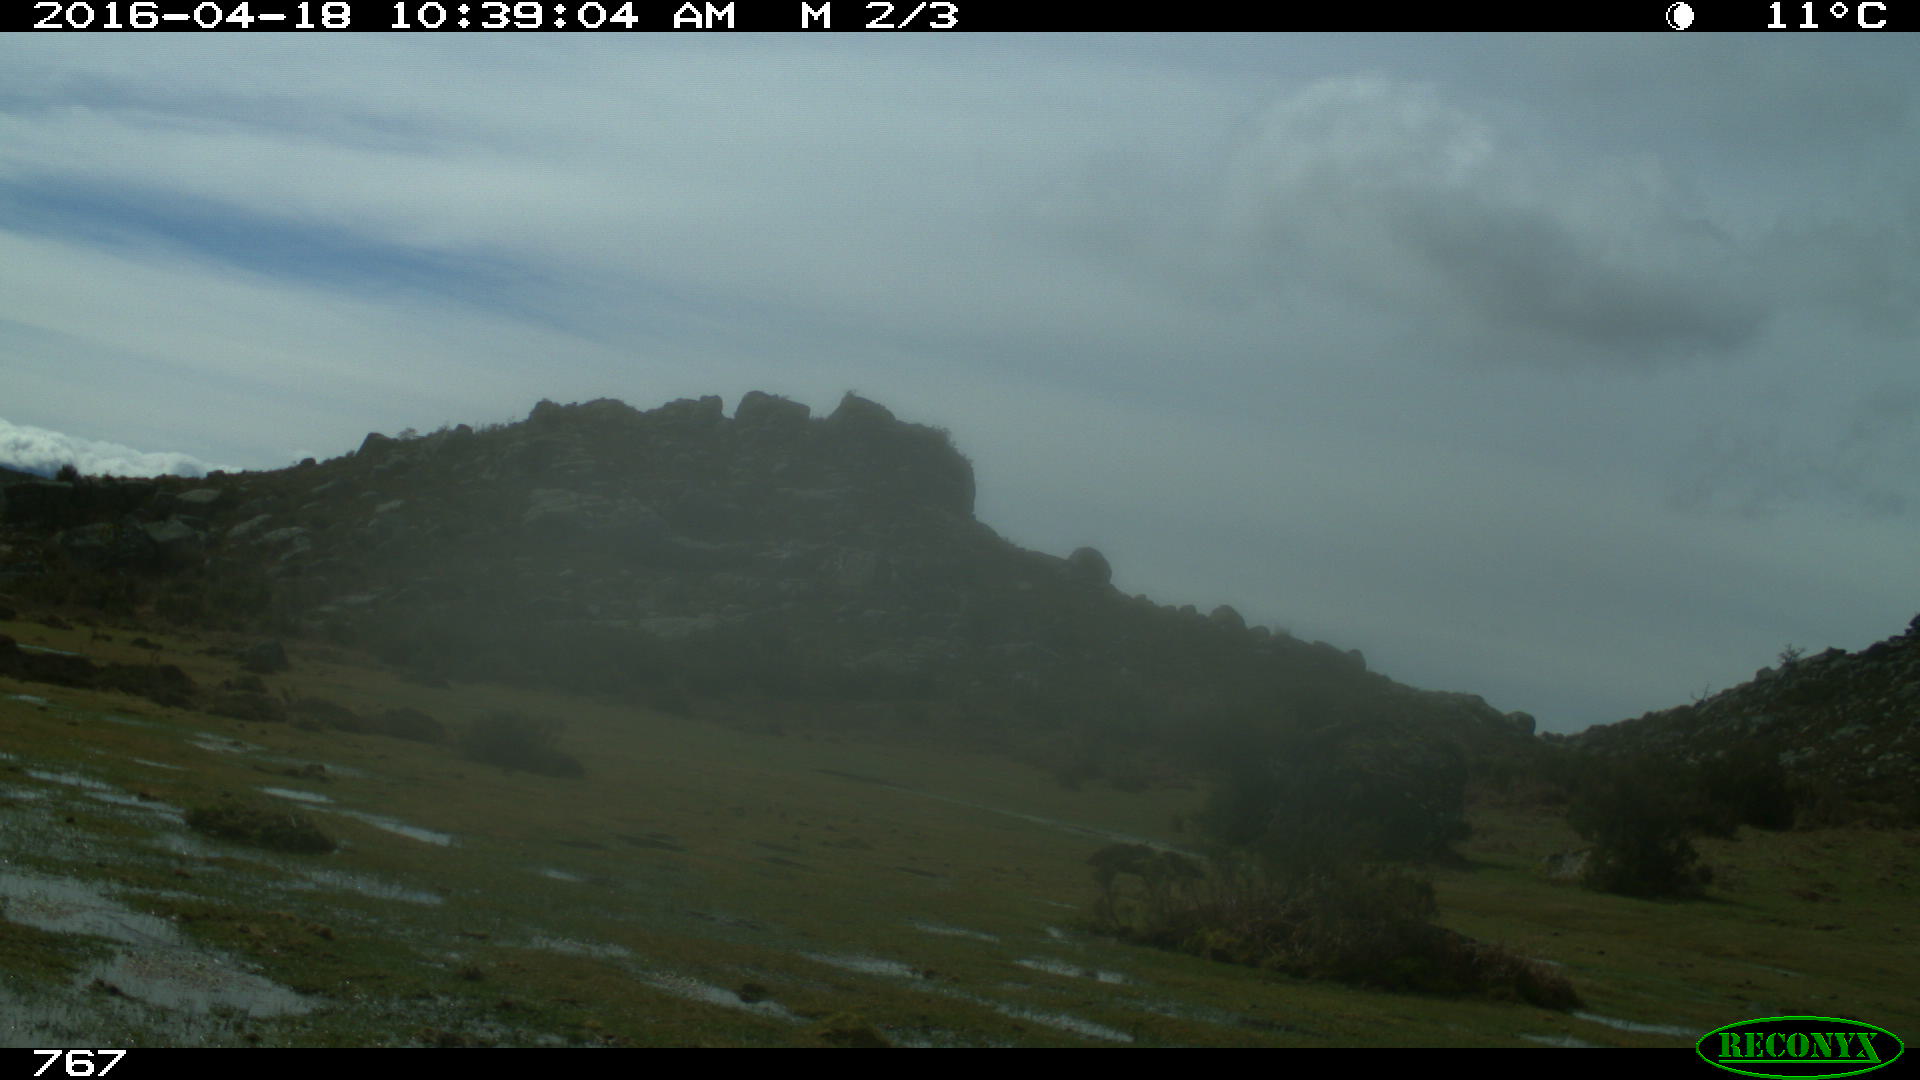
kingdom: Animalia
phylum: Chordata
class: Mammalia
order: Artiodactyla
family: Bovidae
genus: Bos
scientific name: Bos taurus
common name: Domesticated cattle
